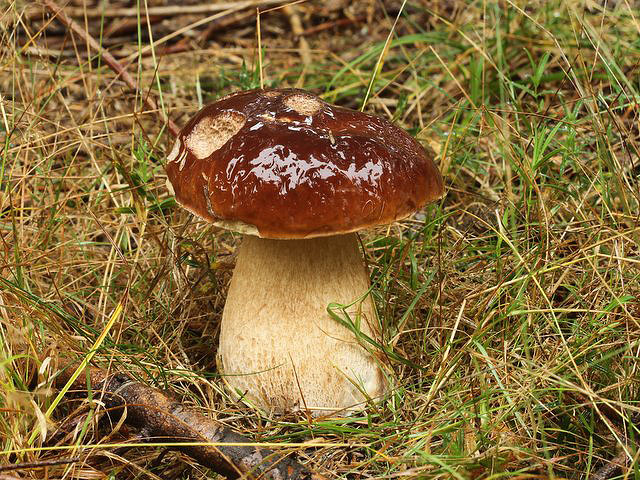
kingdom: Fungi
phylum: Basidiomycota
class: Agaricomycetes
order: Boletales
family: Boletaceae
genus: Boletus
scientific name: Boletus edulis
